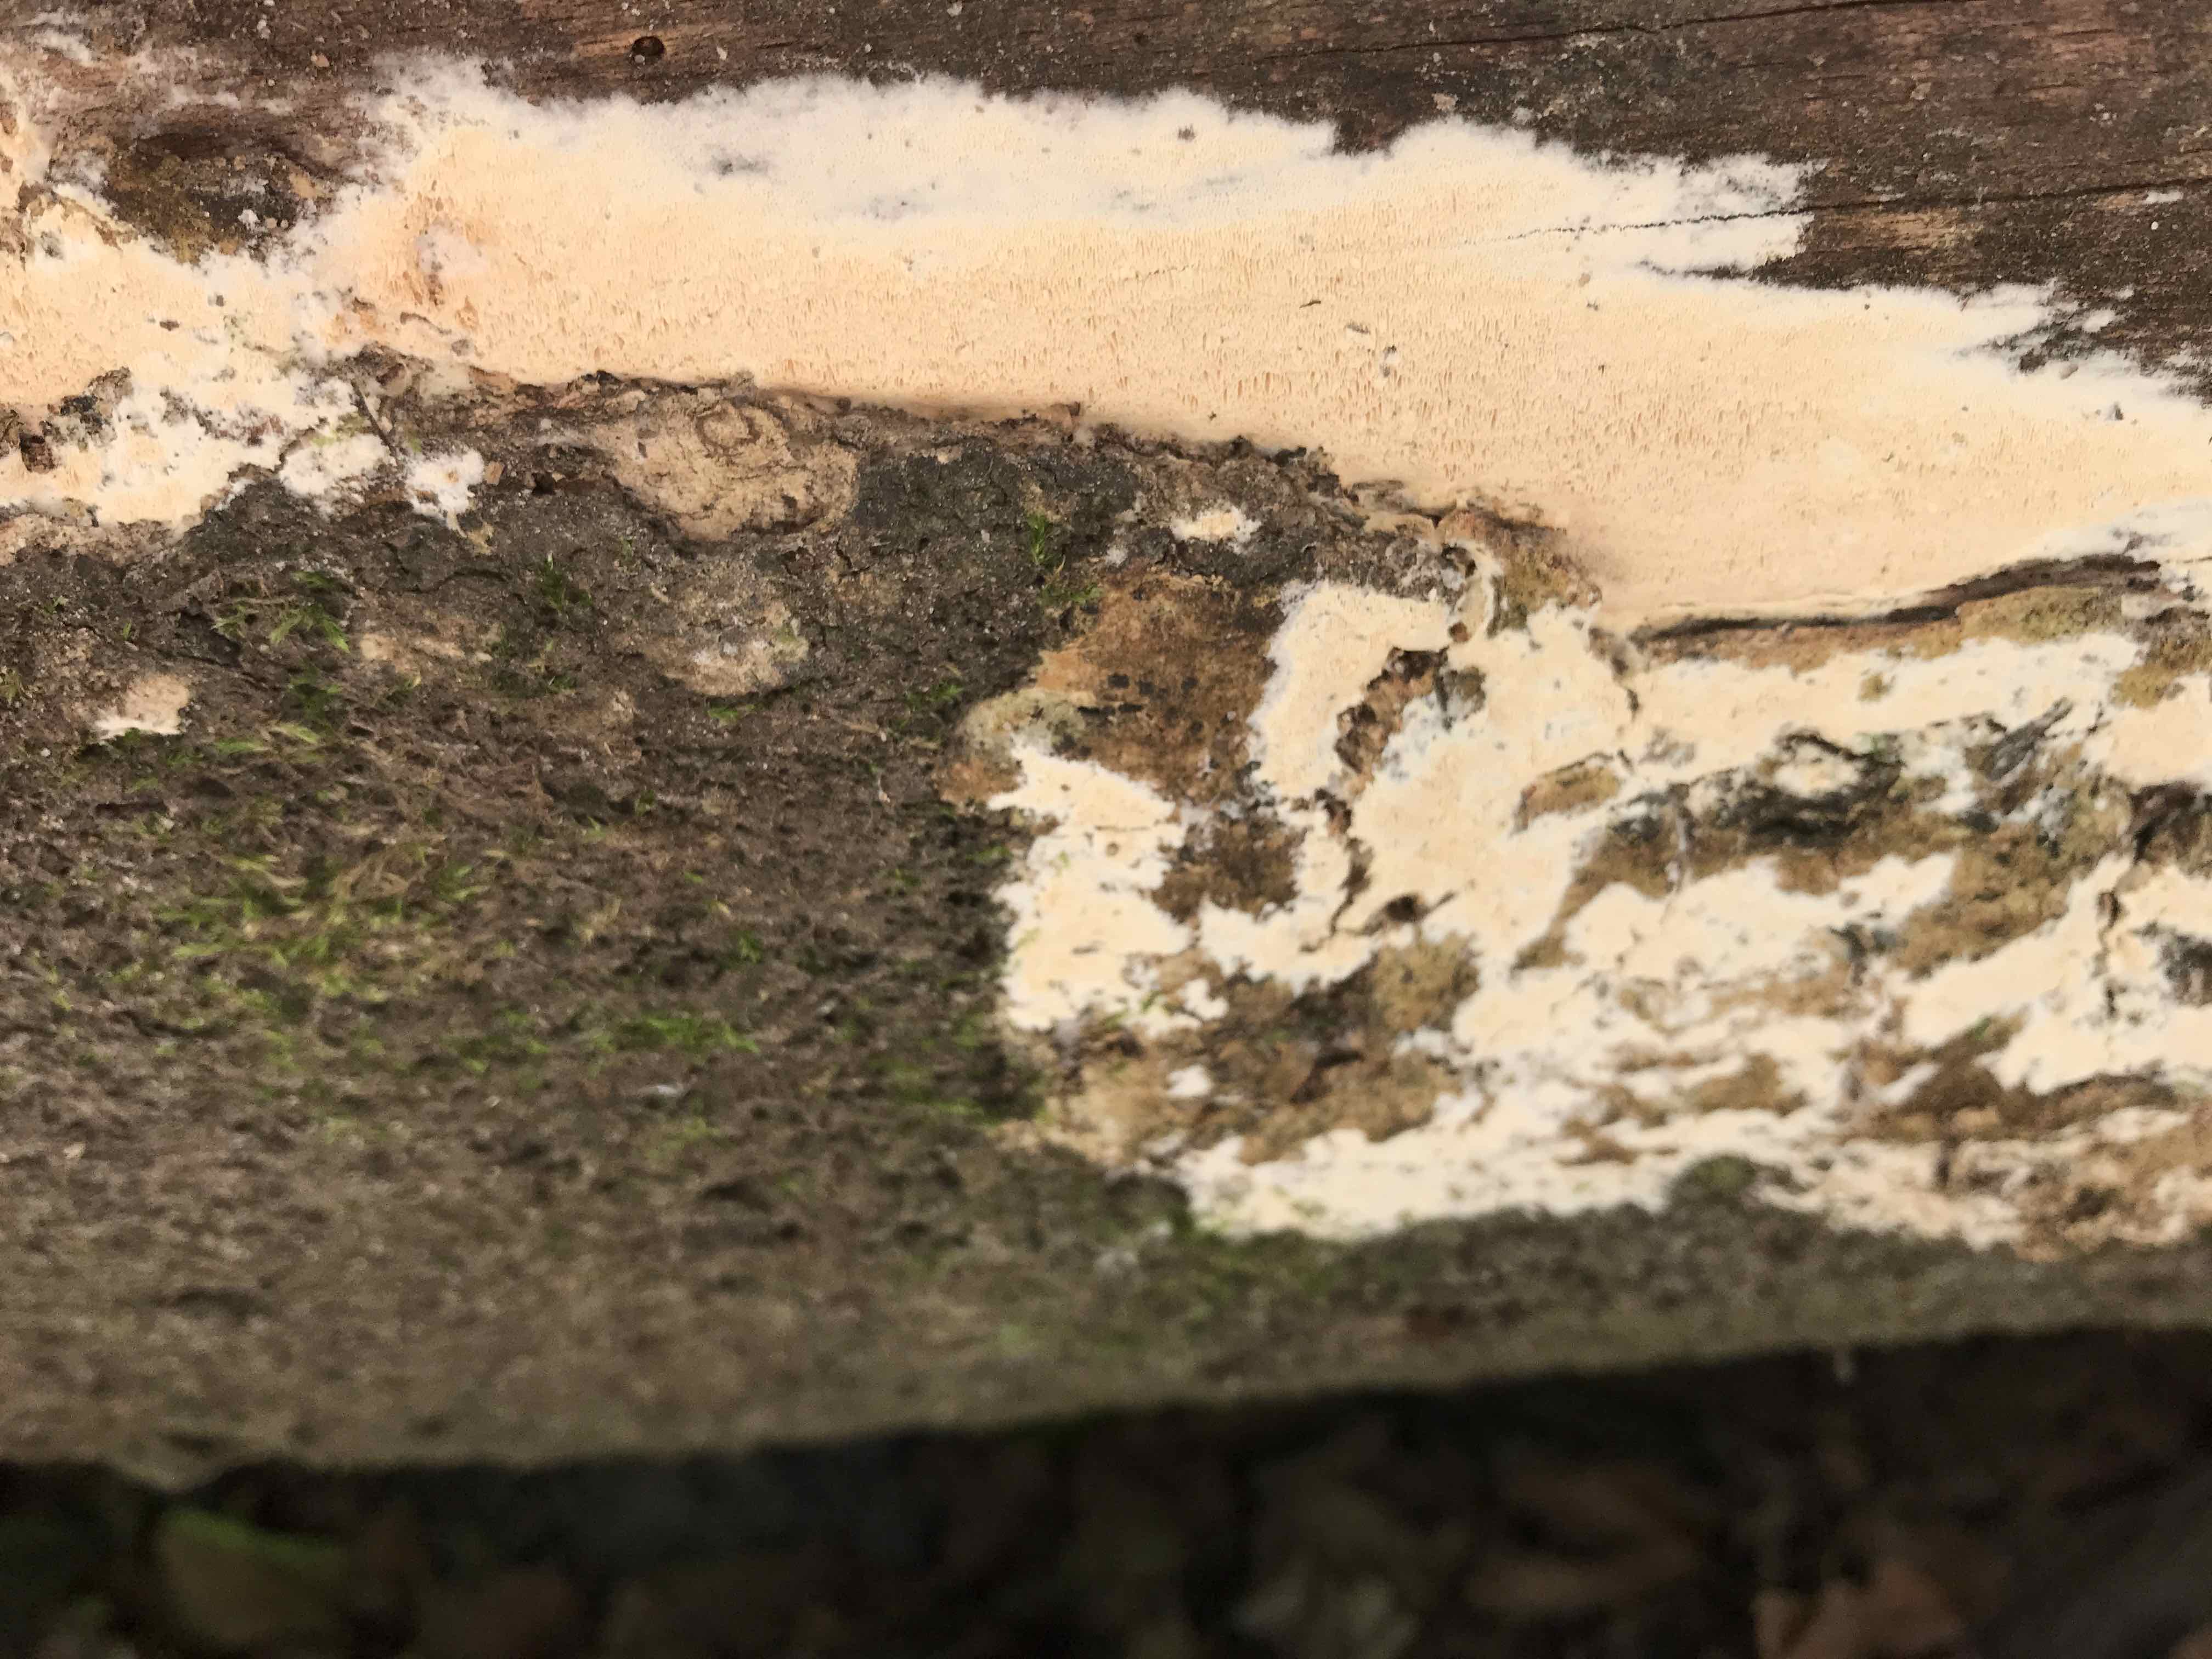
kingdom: Fungi
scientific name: Fungi
